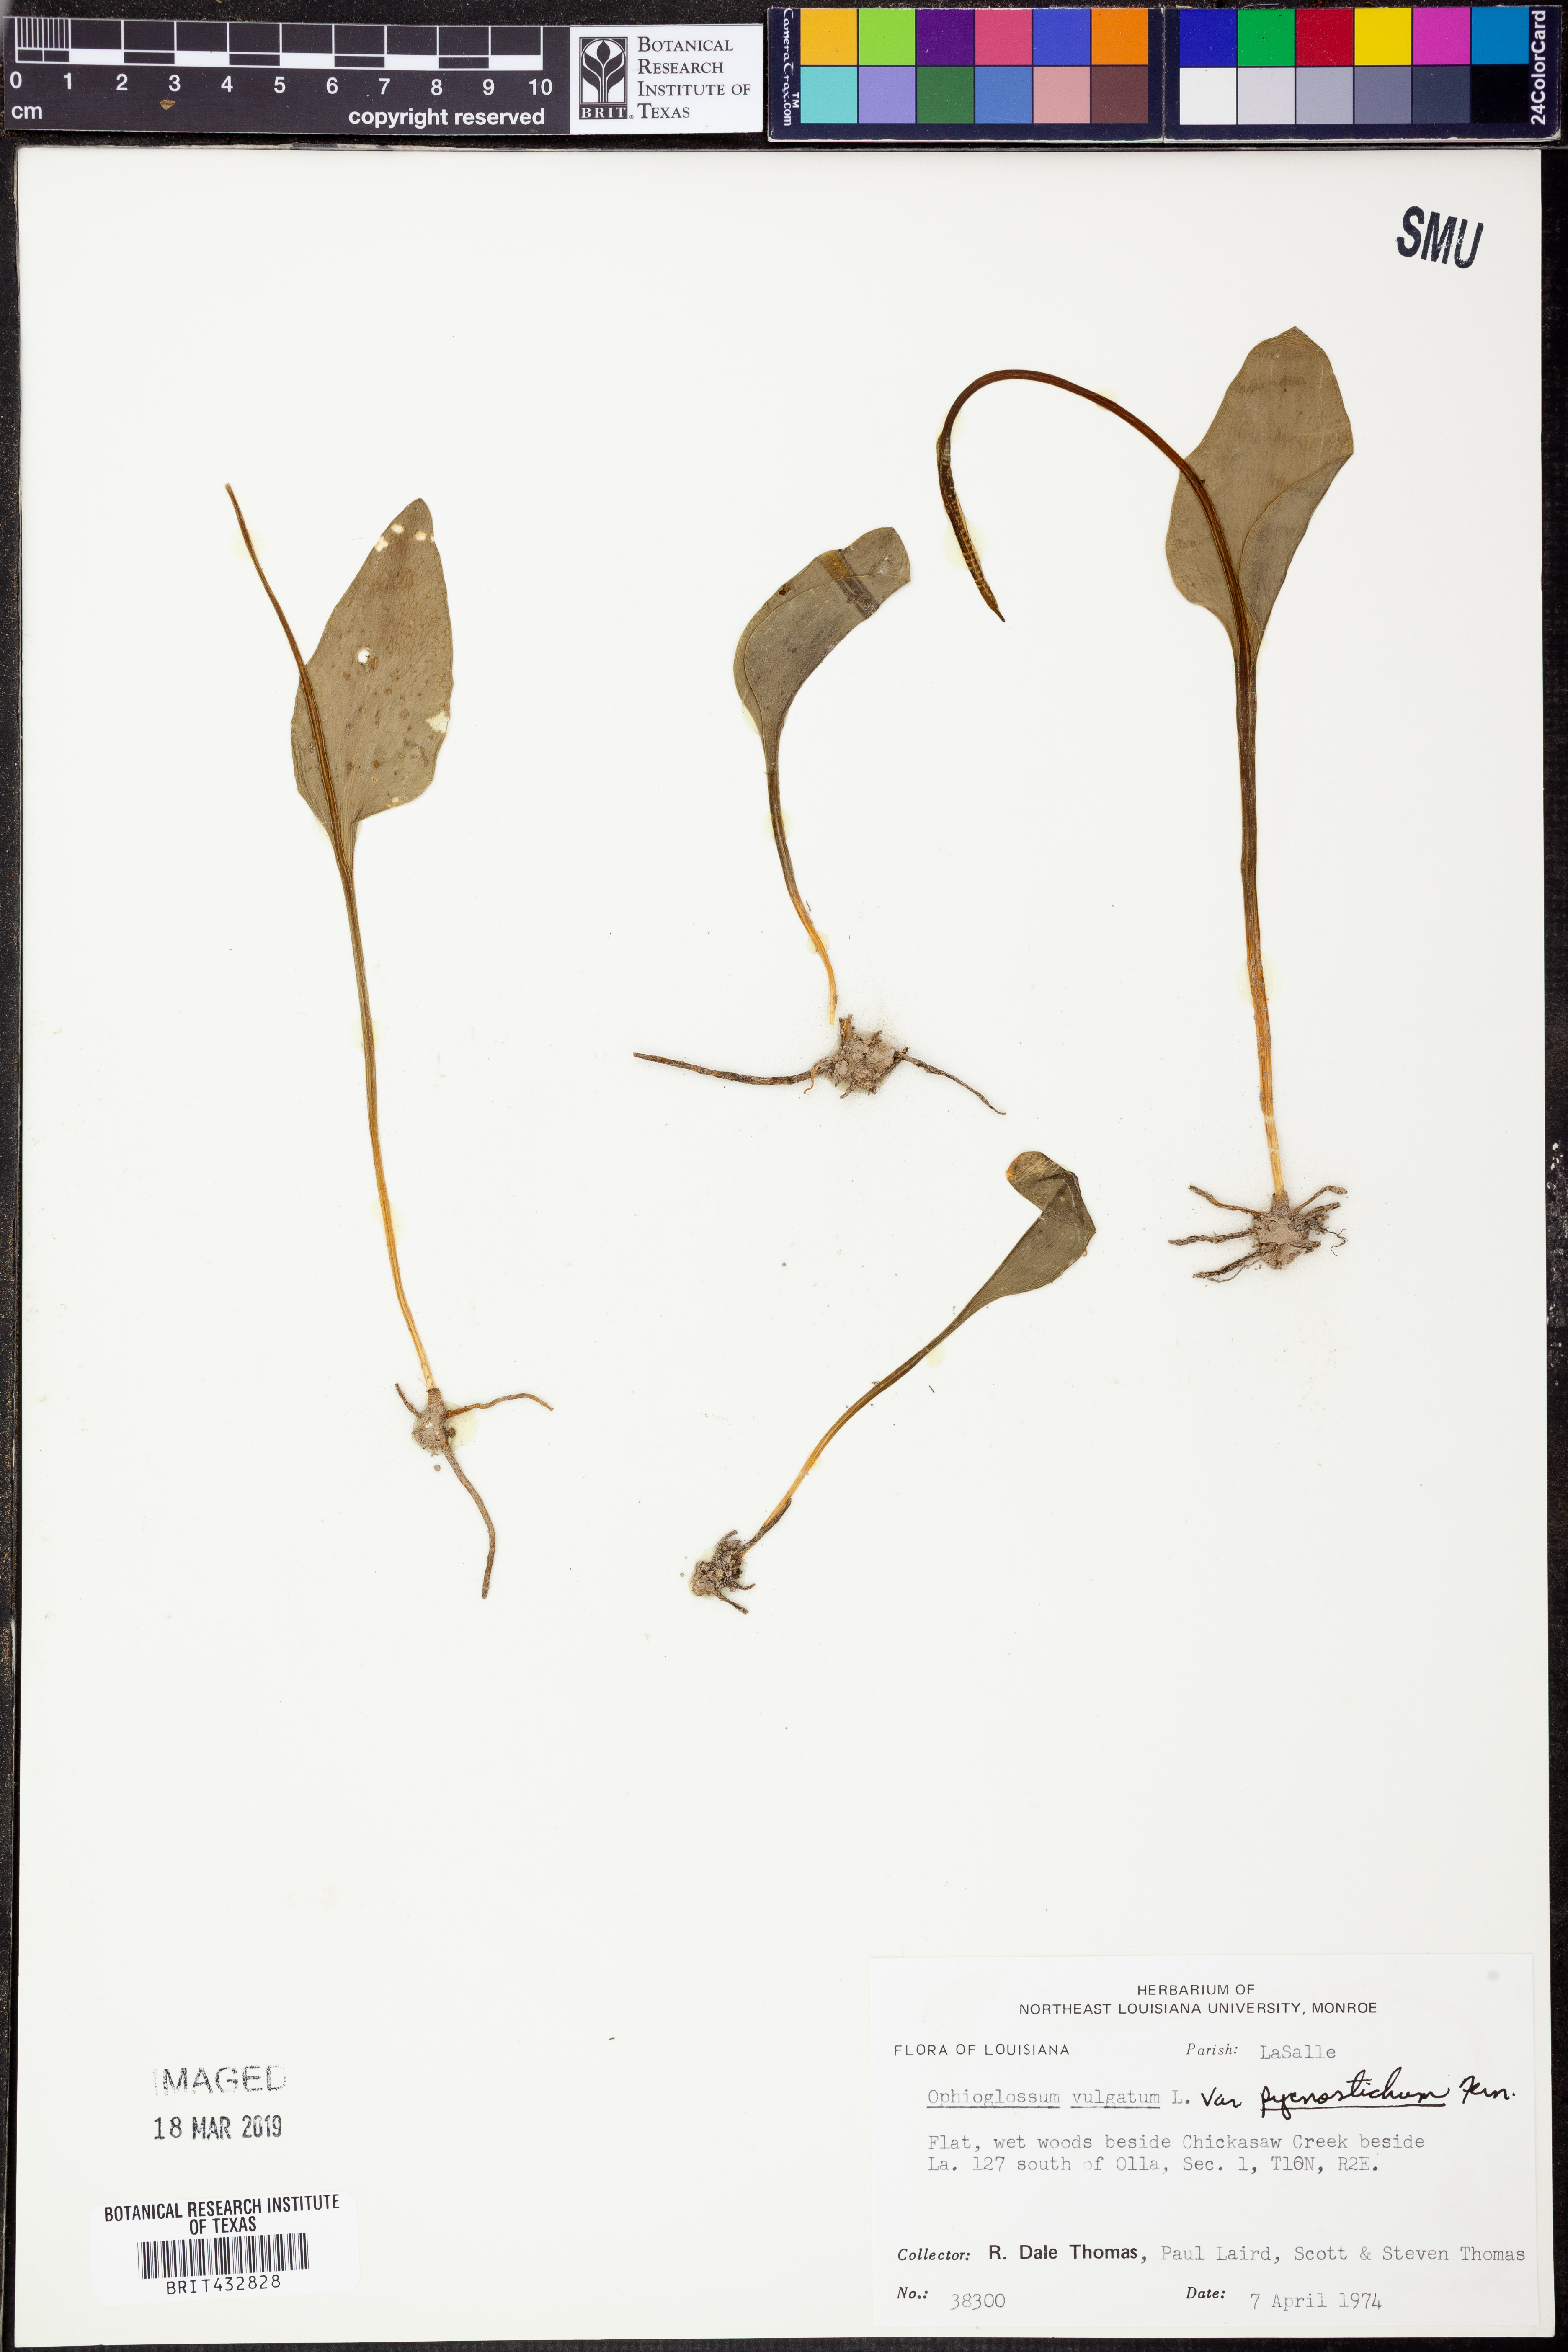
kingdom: Plantae
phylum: Tracheophyta
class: Polypodiopsida
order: Ophioglossales
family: Ophioglossaceae
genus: Ophioglossum
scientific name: Ophioglossum vulgatum
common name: Adder's-tongue
